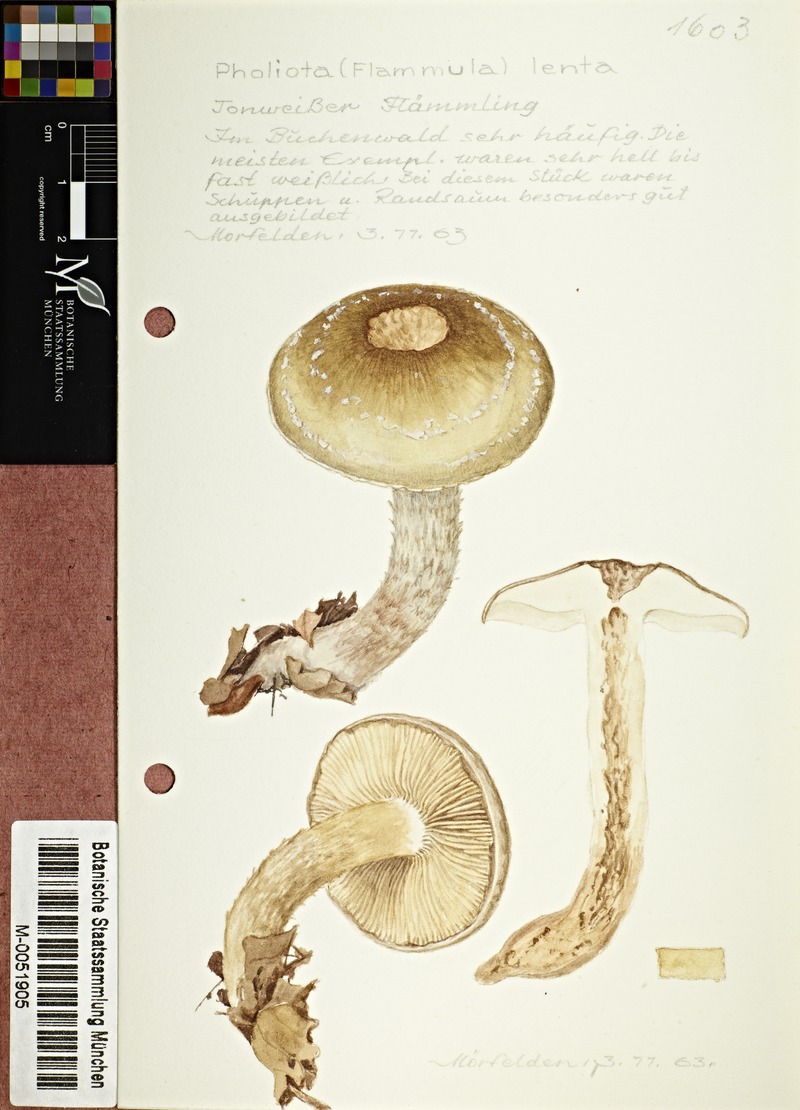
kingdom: Fungi
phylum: Basidiomycota
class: Agaricomycetes
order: Agaricales
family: Strophariaceae
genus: Pholiota
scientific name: Pholiota lenta
